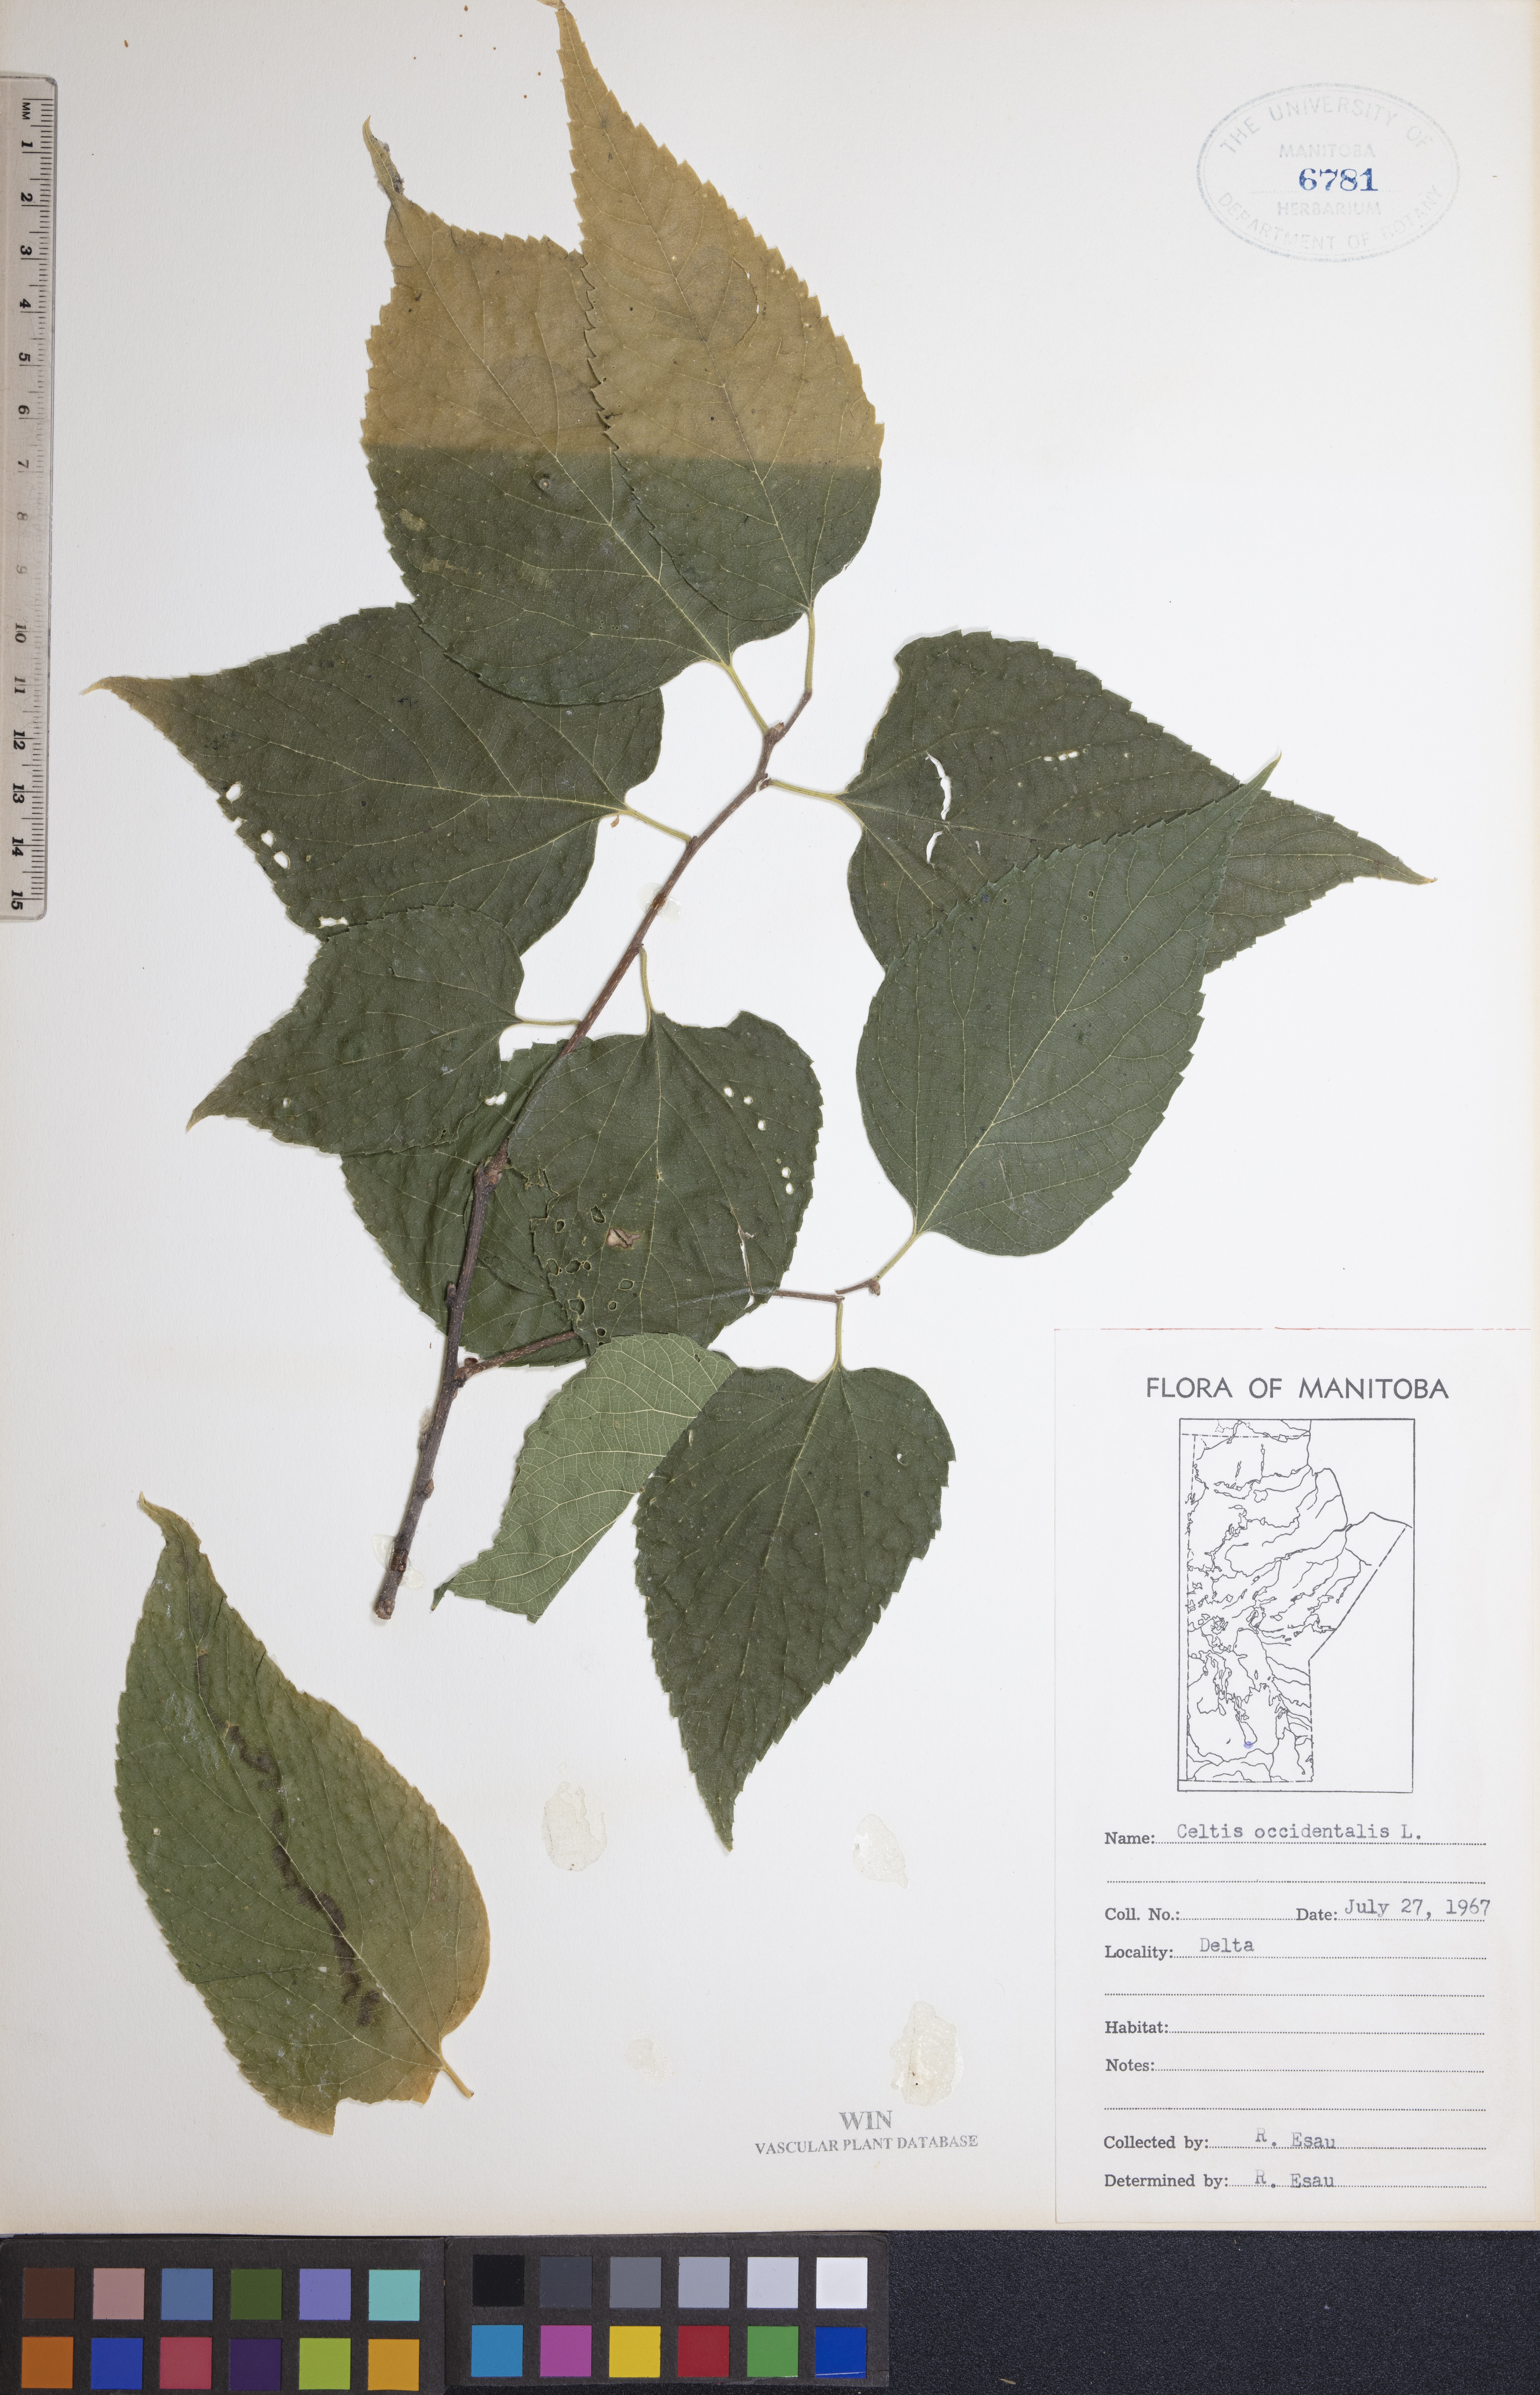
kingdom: Plantae
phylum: Tracheophyta
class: Magnoliopsida
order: Rosales
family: Cannabaceae
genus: Celtis
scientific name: Celtis occidentalis
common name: Common hackberry
